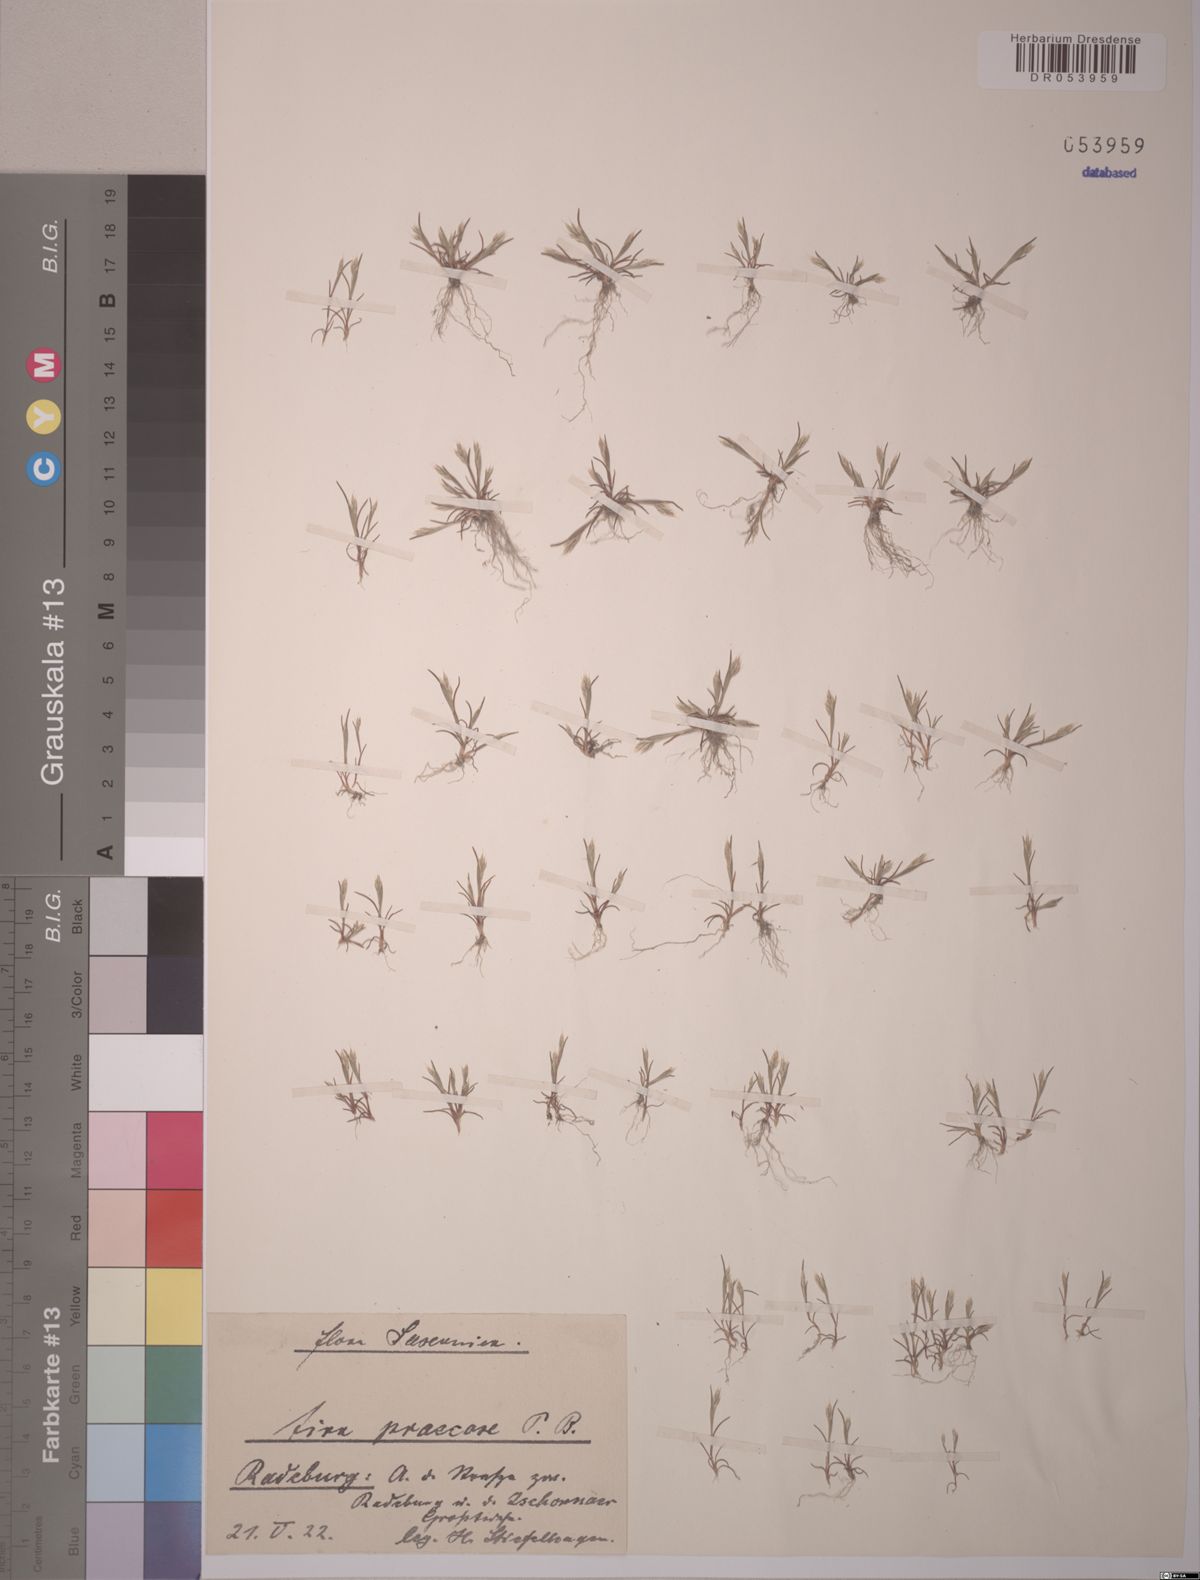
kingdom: Plantae
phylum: Tracheophyta
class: Liliopsida
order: Poales
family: Poaceae
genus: Aira
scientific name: Aira praecox
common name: Early hair-grass
